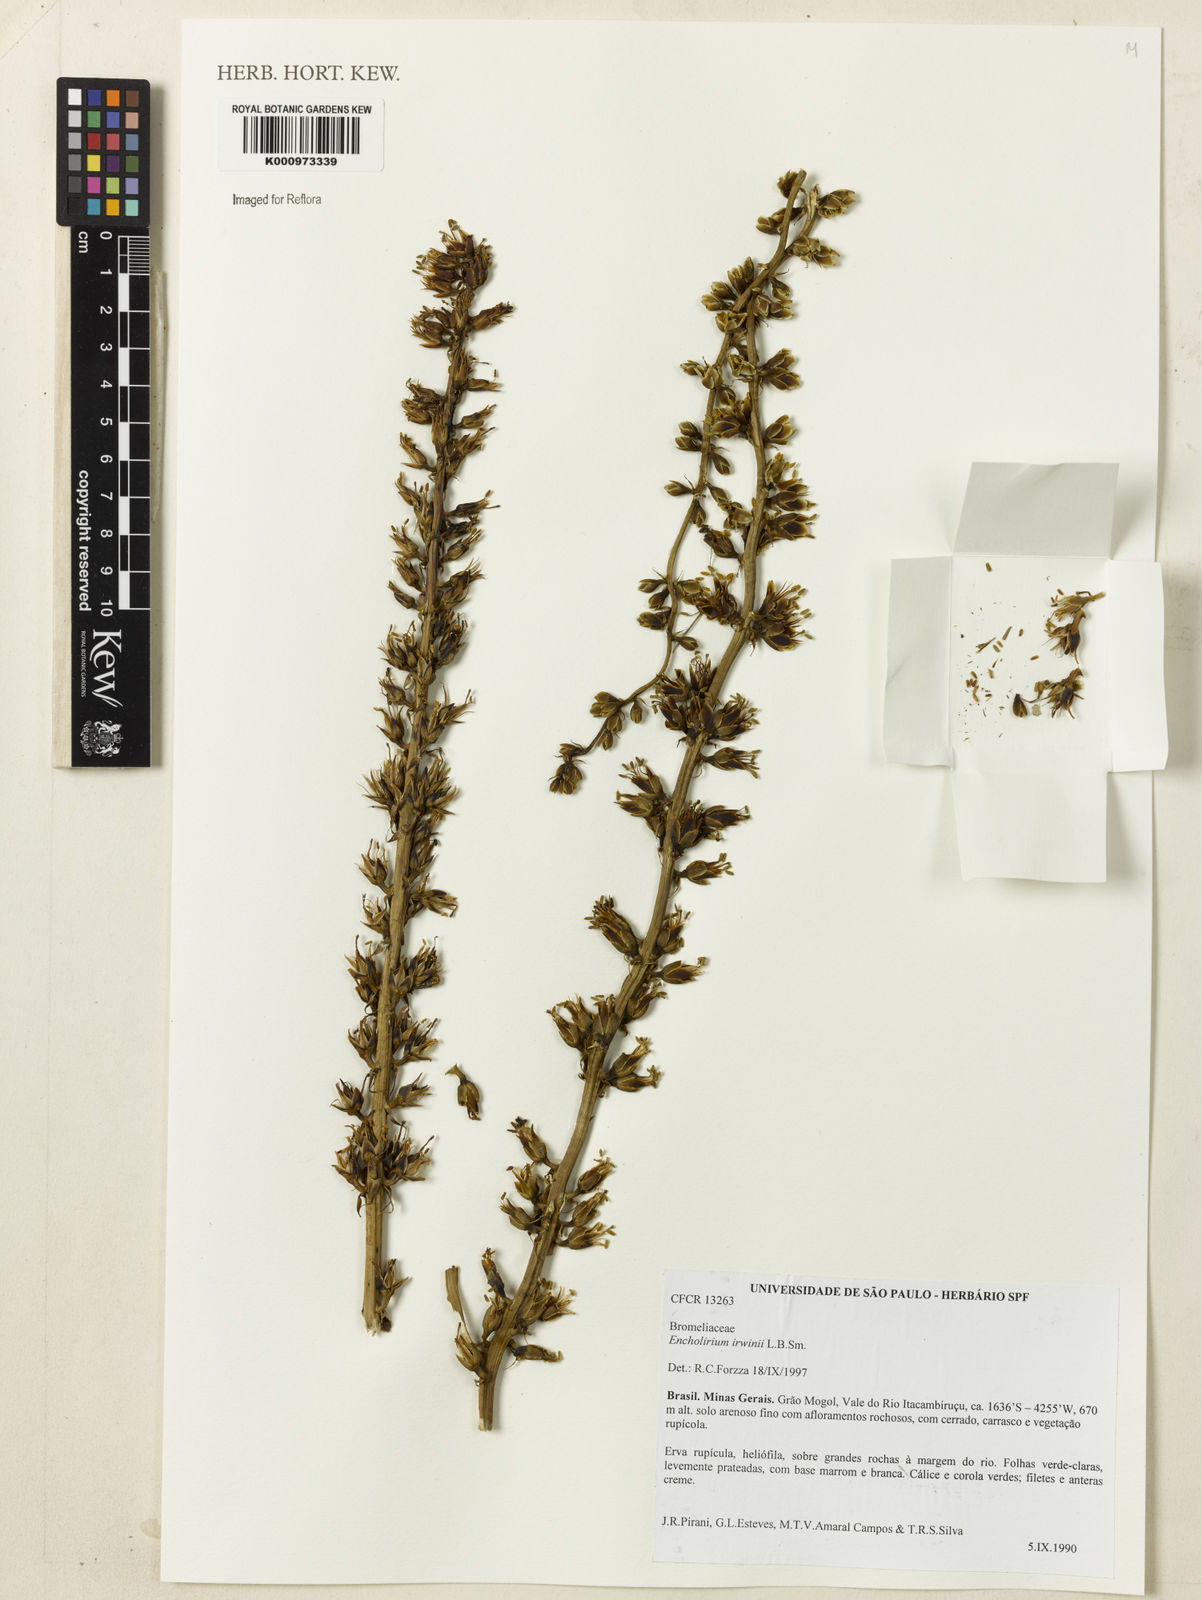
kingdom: Plantae
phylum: Tracheophyta
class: Liliopsida
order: Poales
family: Bromeliaceae
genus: Encholirium
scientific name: Encholirium irwinii
